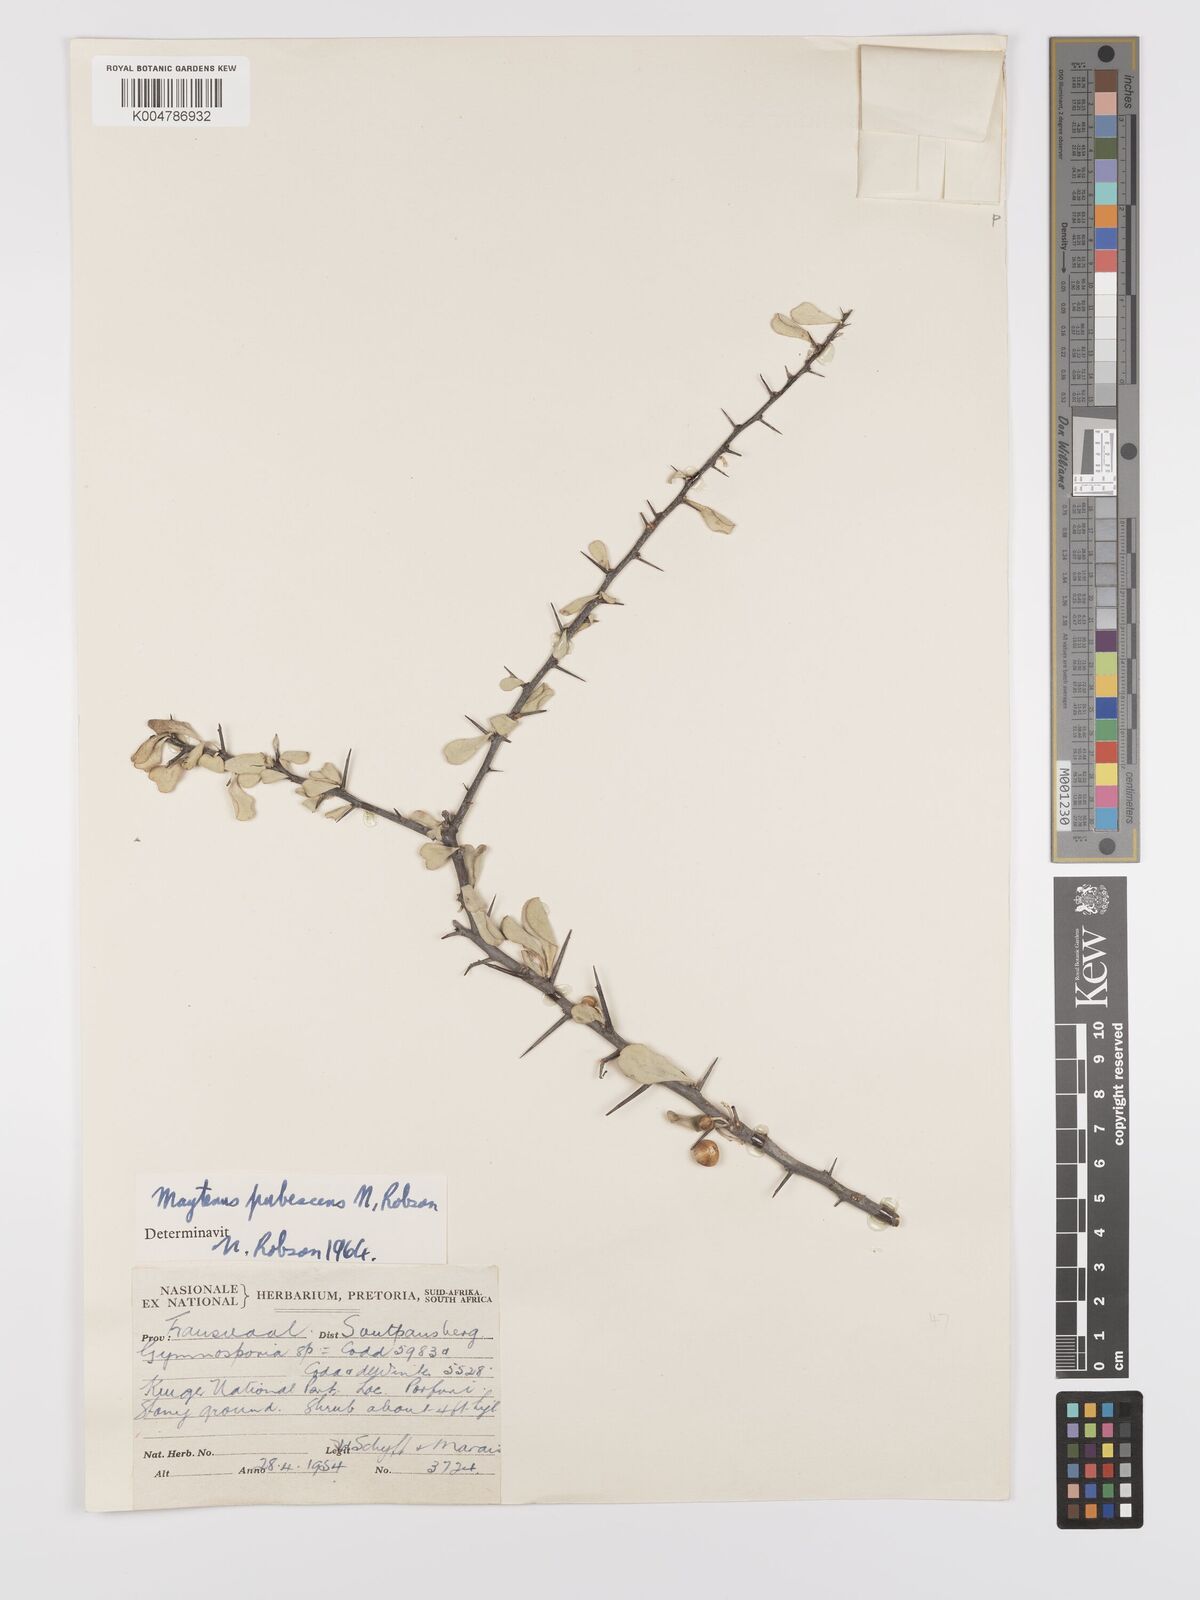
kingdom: Plantae
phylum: Tracheophyta
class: Magnoliopsida
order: Celastrales
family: Celastraceae
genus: Gymnosporia
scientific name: Gymnosporia pubescens
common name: Hairy spike-thorn
